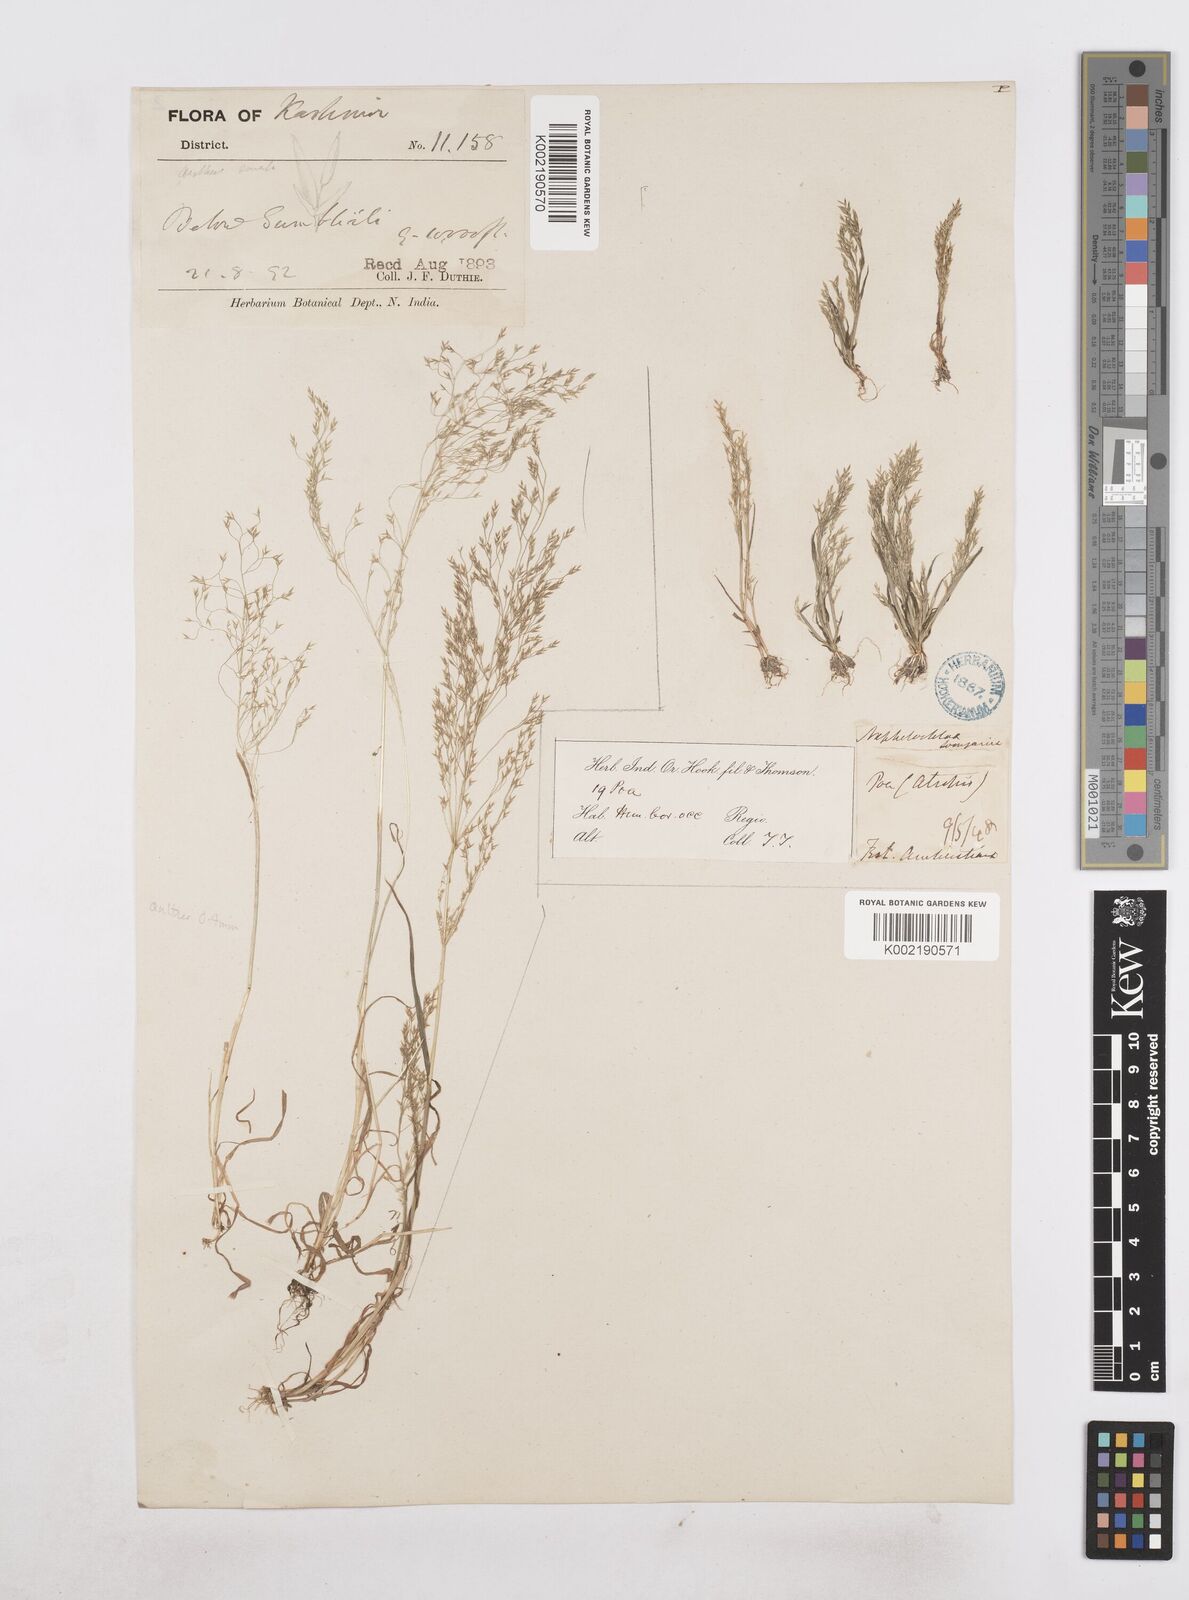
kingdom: Plantae
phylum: Tracheophyta
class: Liliopsida
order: Poales
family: Poaceae
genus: Poa
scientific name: Poa diaphora
